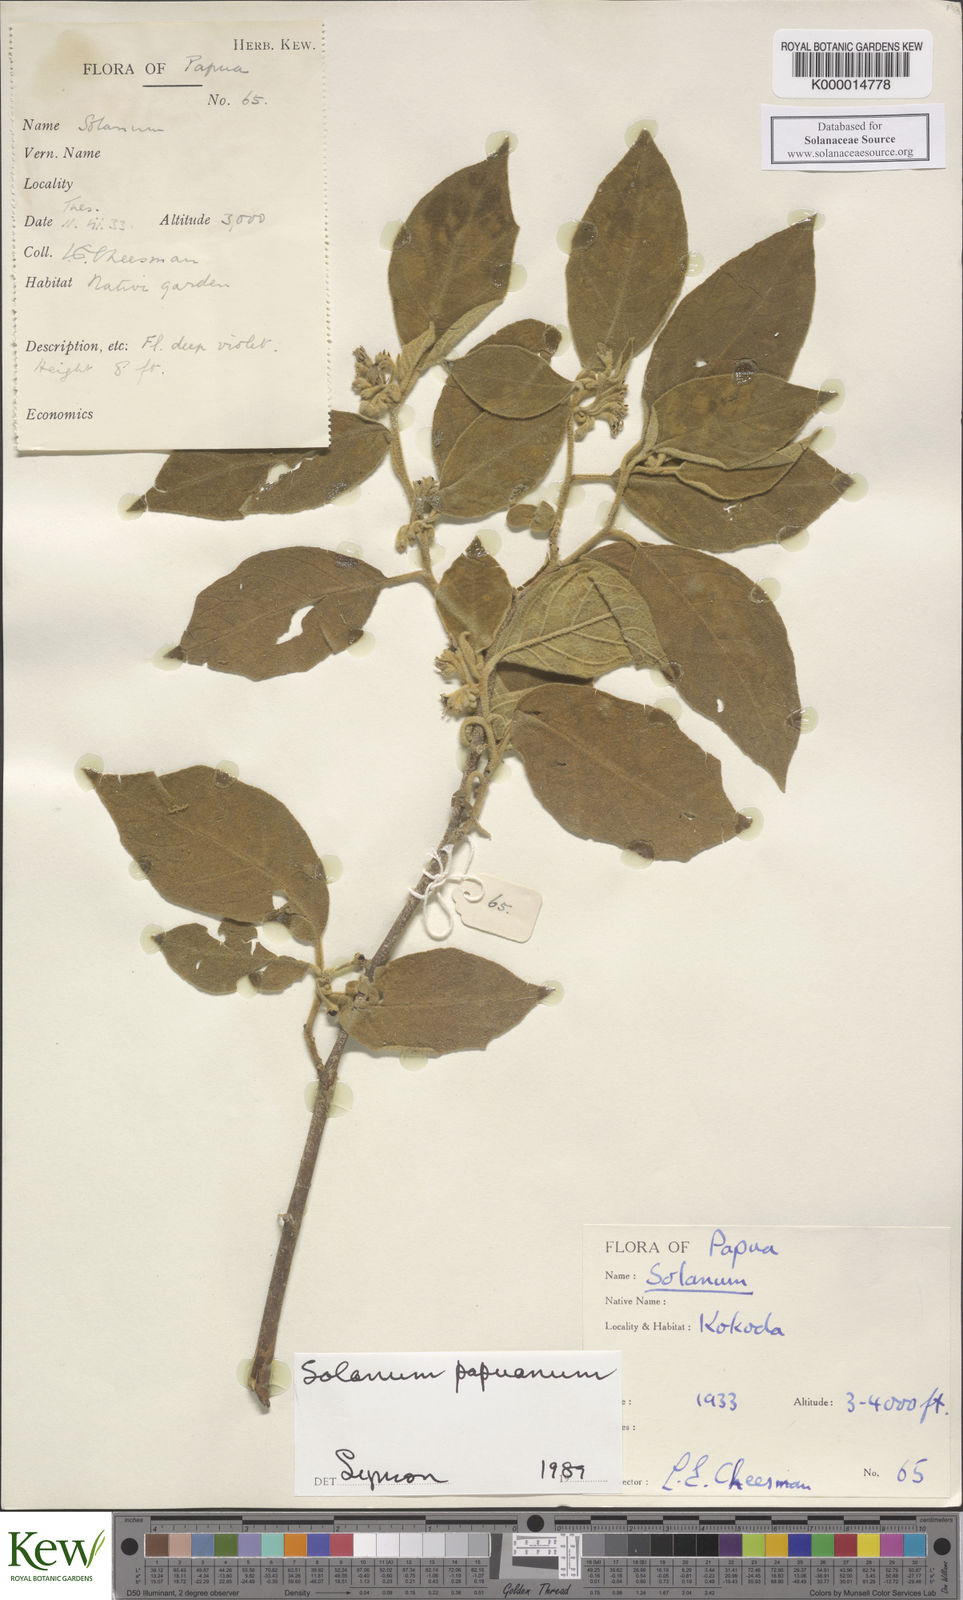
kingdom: Plantae
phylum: Tracheophyta
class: Magnoliopsida
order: Solanales
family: Solanaceae
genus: Solanum
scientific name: Solanum papuanum
